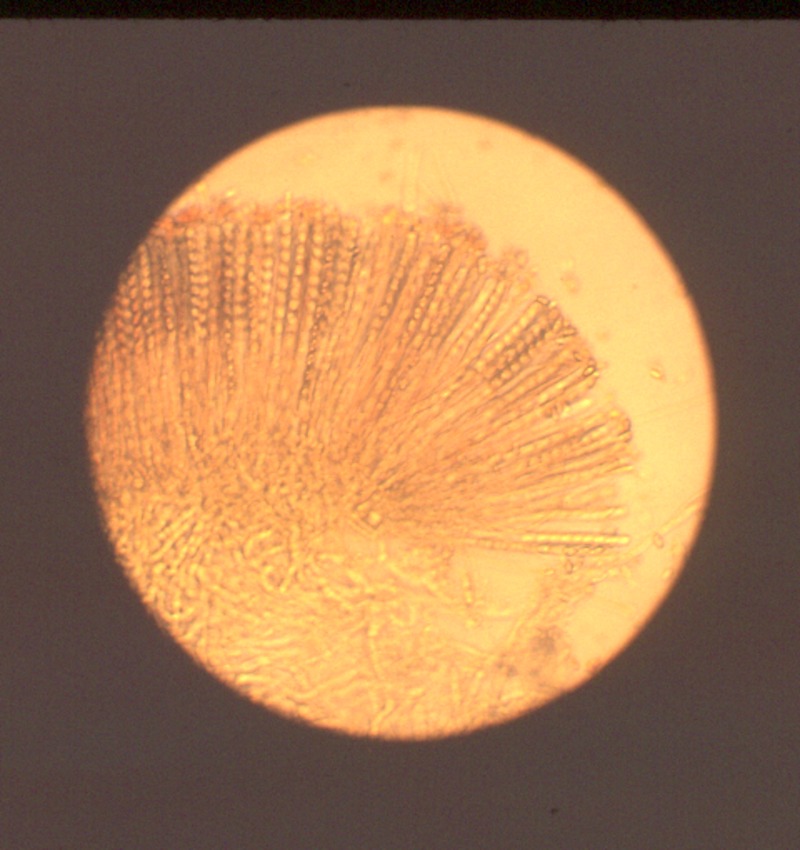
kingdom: Fungi
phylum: Ascomycota
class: Pezizomycetes
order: Pezizales
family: Pezizaceae
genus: Legaliana
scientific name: Legaliana badia
